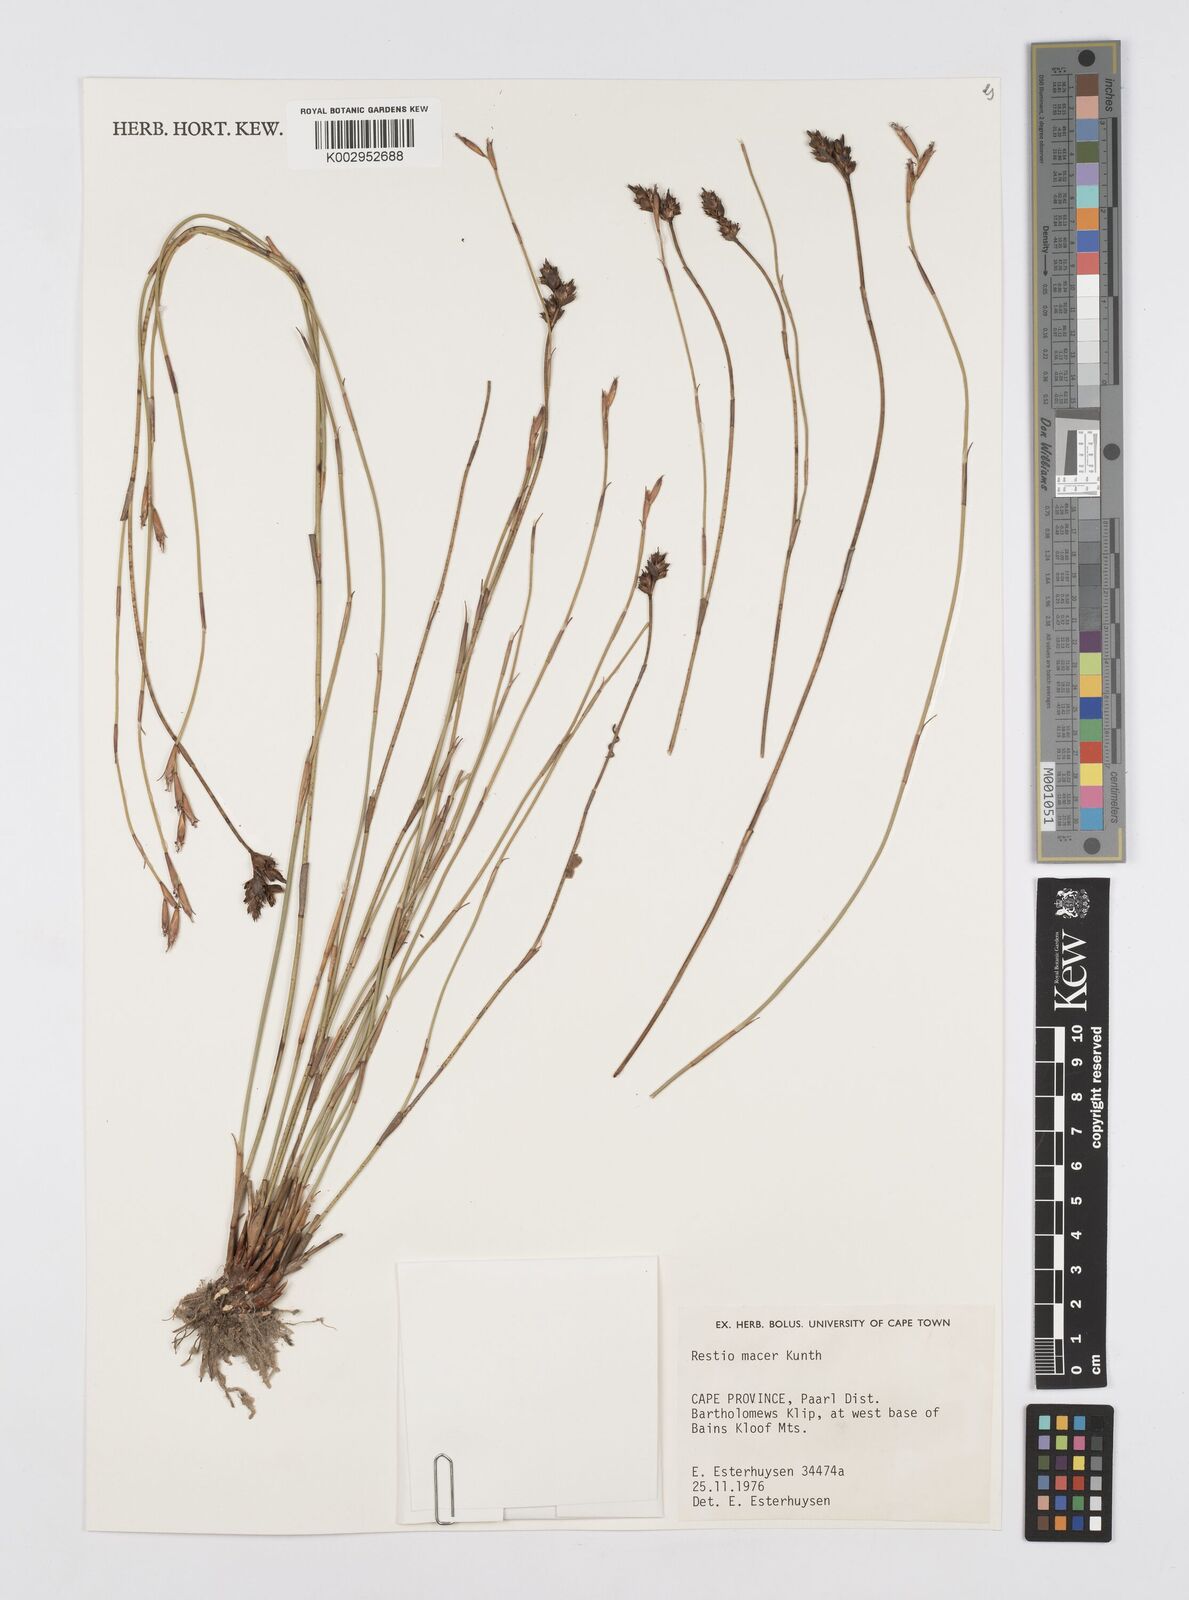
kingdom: Plantae
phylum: Tracheophyta
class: Liliopsida
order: Poales
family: Restionaceae
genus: Restio
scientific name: Restio macer
